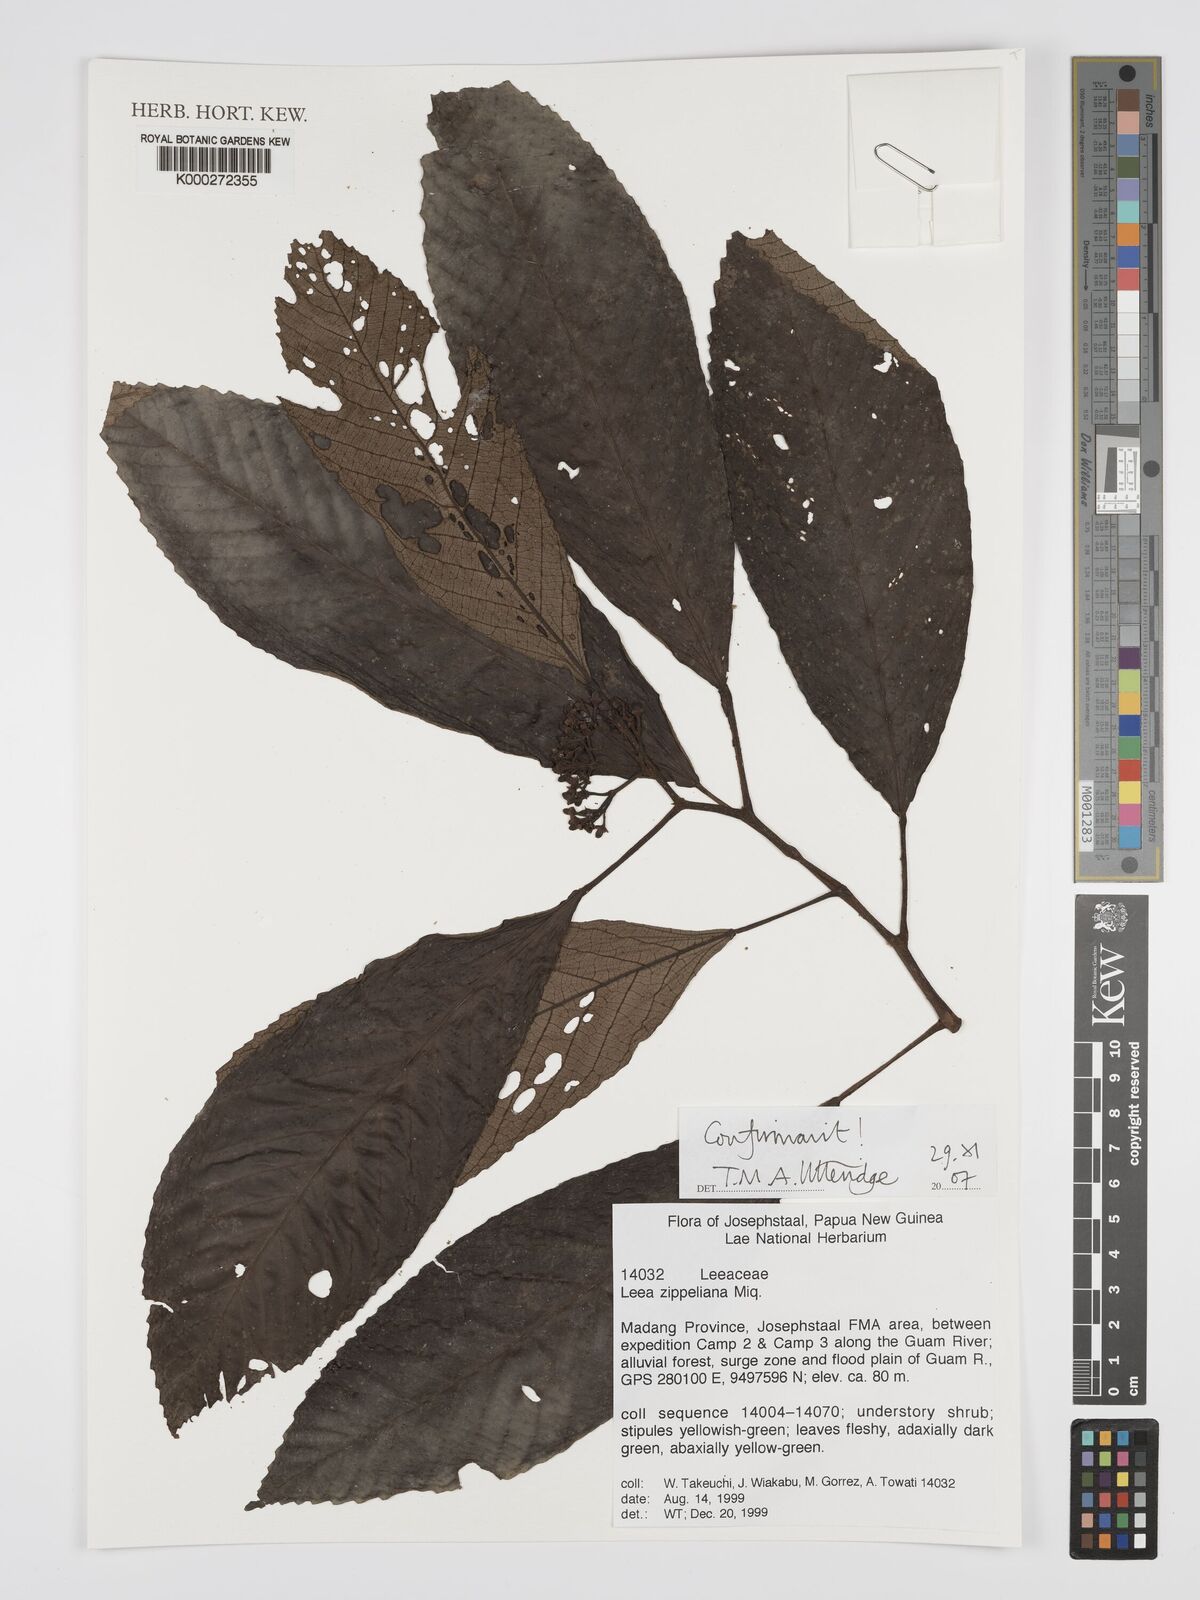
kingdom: Plantae
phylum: Tracheophyta
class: Magnoliopsida
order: Vitales
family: Vitaceae
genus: Leea
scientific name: Leea zippeliana
